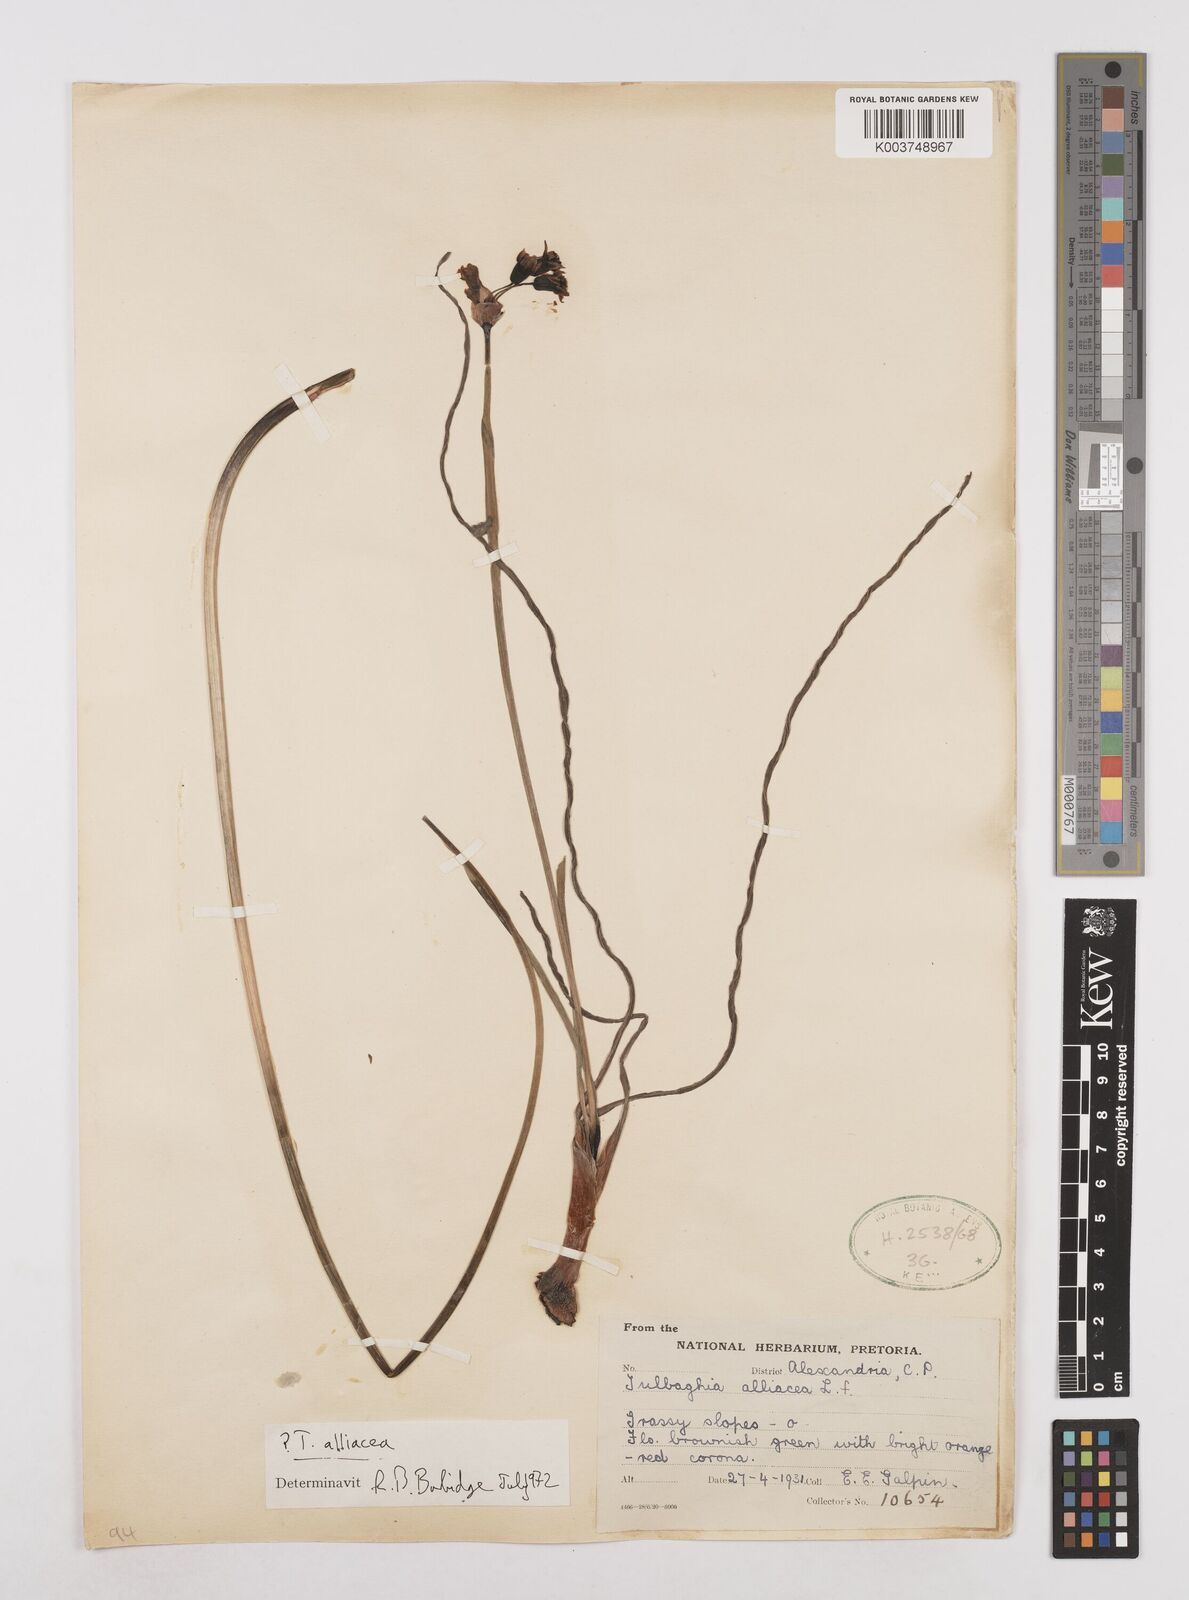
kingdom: Plantae
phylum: Tracheophyta
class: Liliopsida
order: Asparagales
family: Amaryllidaceae
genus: Tulbaghia
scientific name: Tulbaghia alliacea
